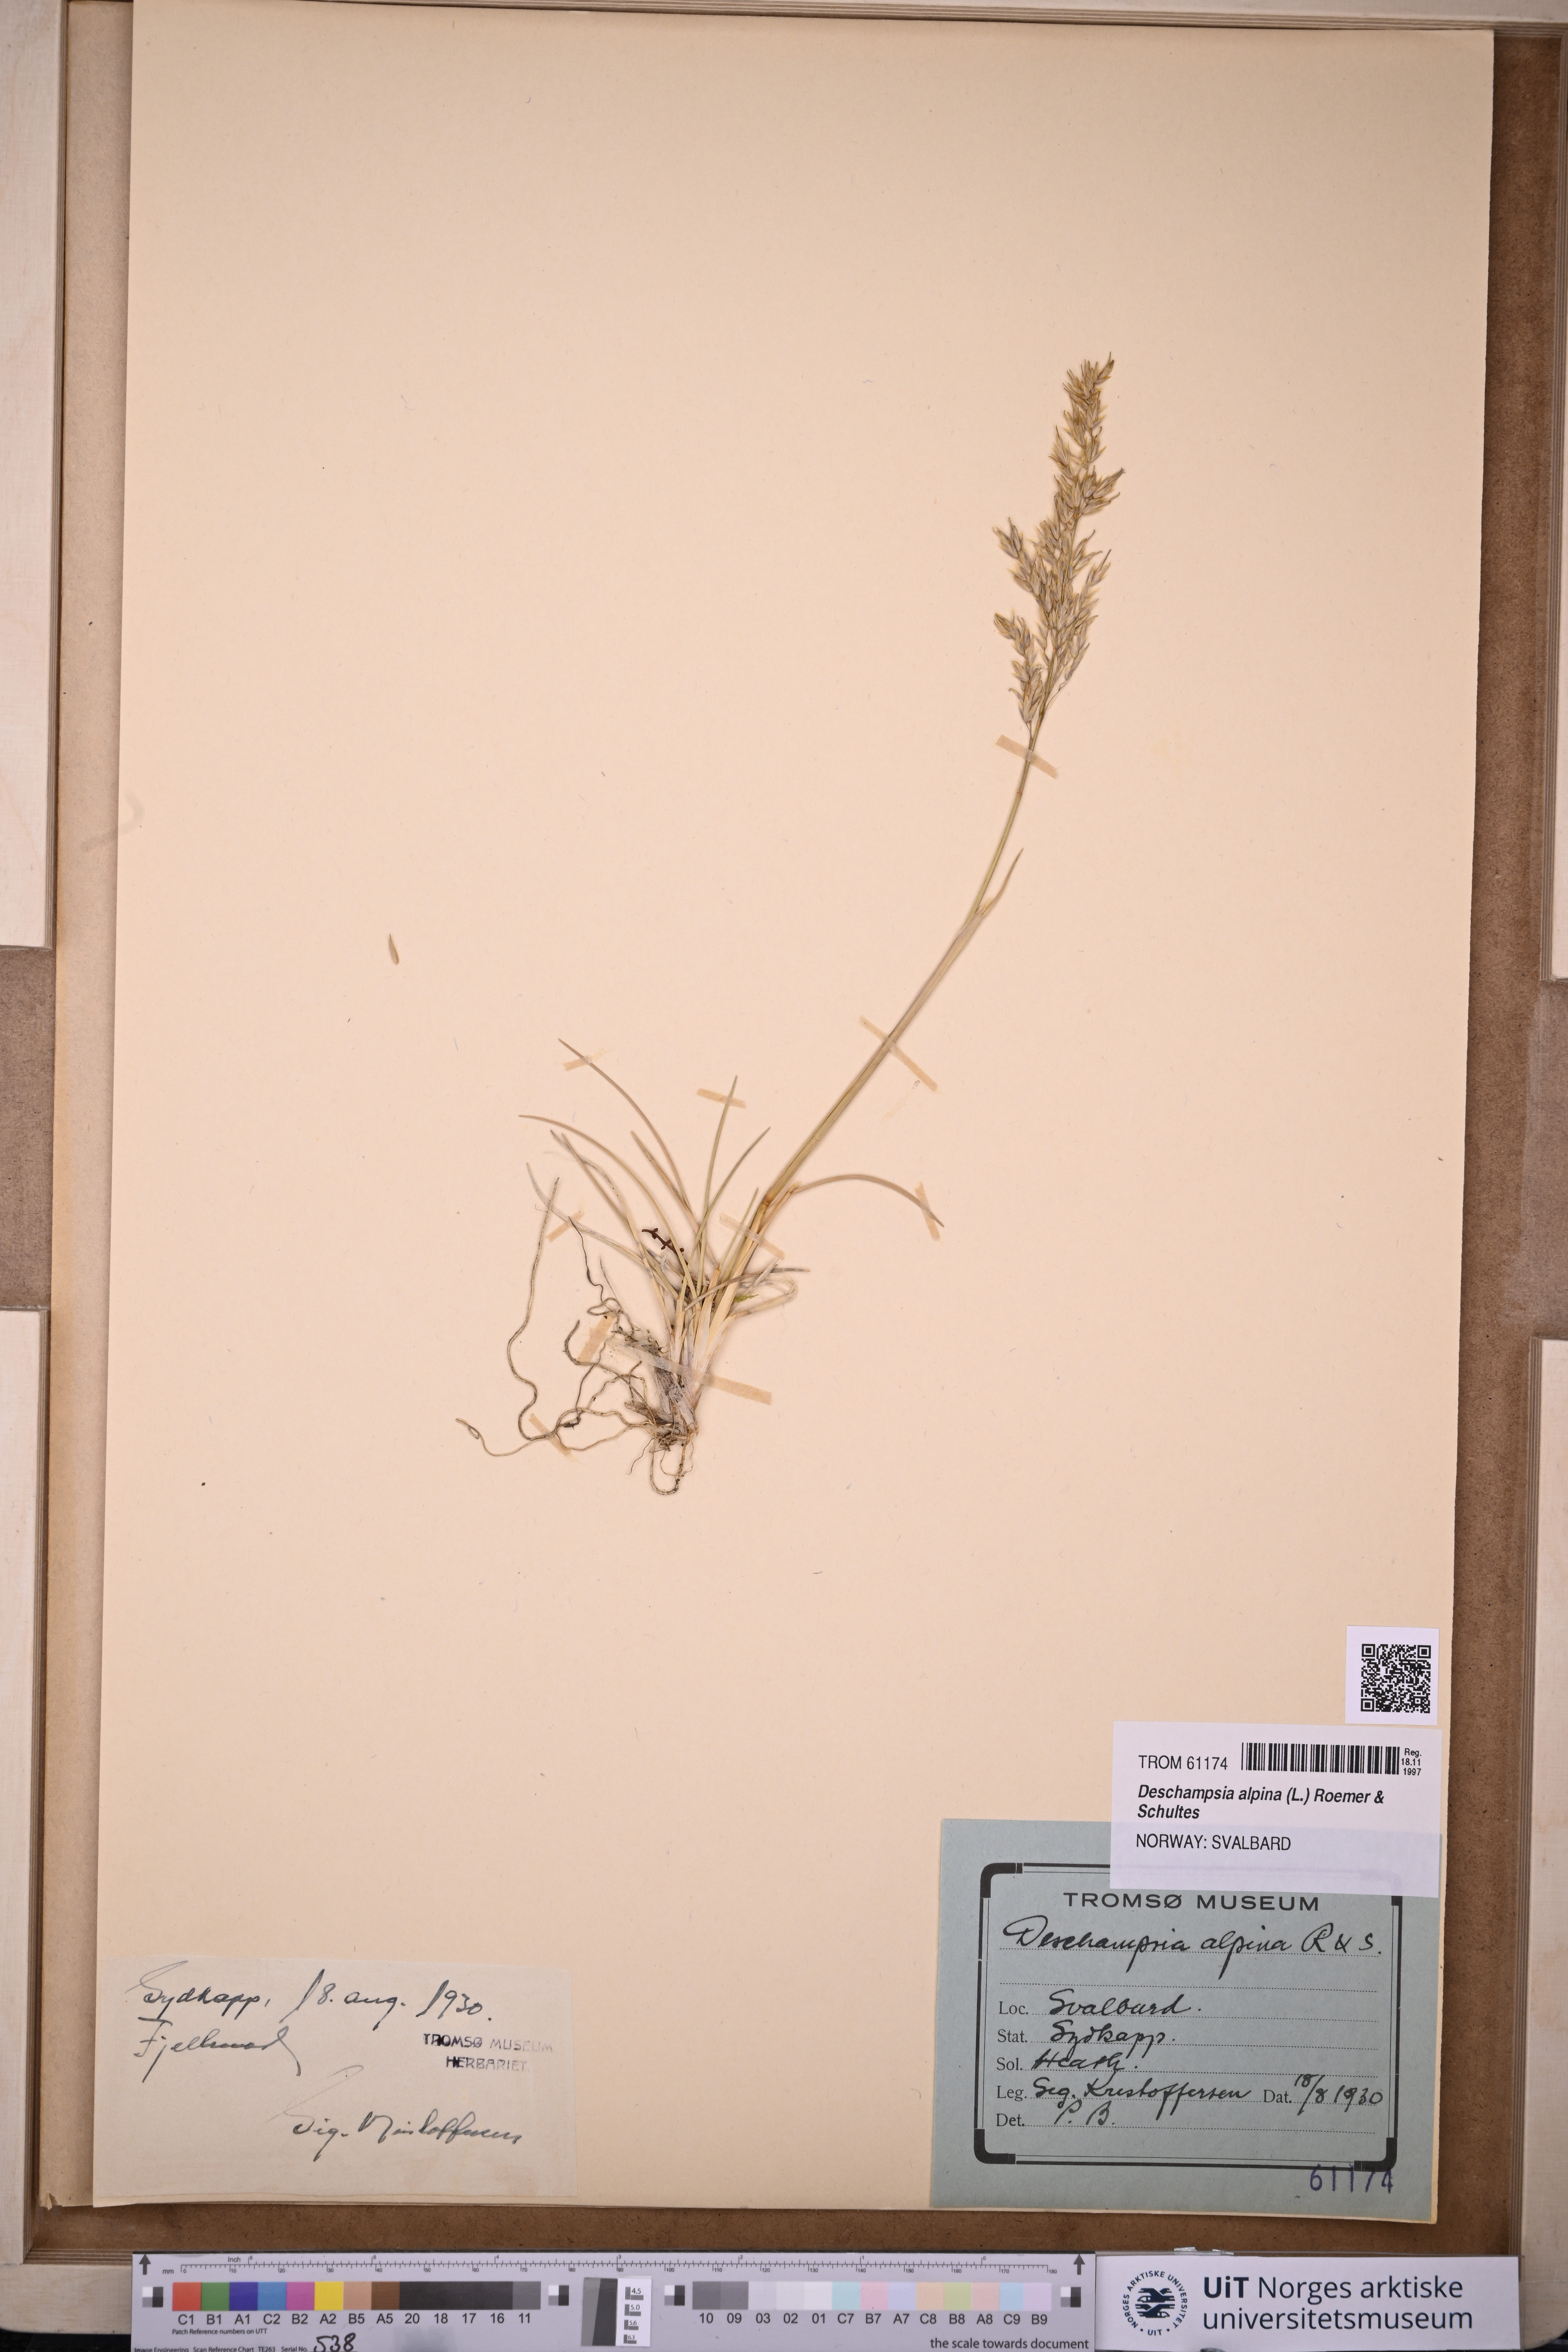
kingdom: Plantae
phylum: Tracheophyta
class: Liliopsida
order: Poales
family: Poaceae
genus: Deschampsia
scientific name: Deschampsia cespitosa
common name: Tufted hair-grass
